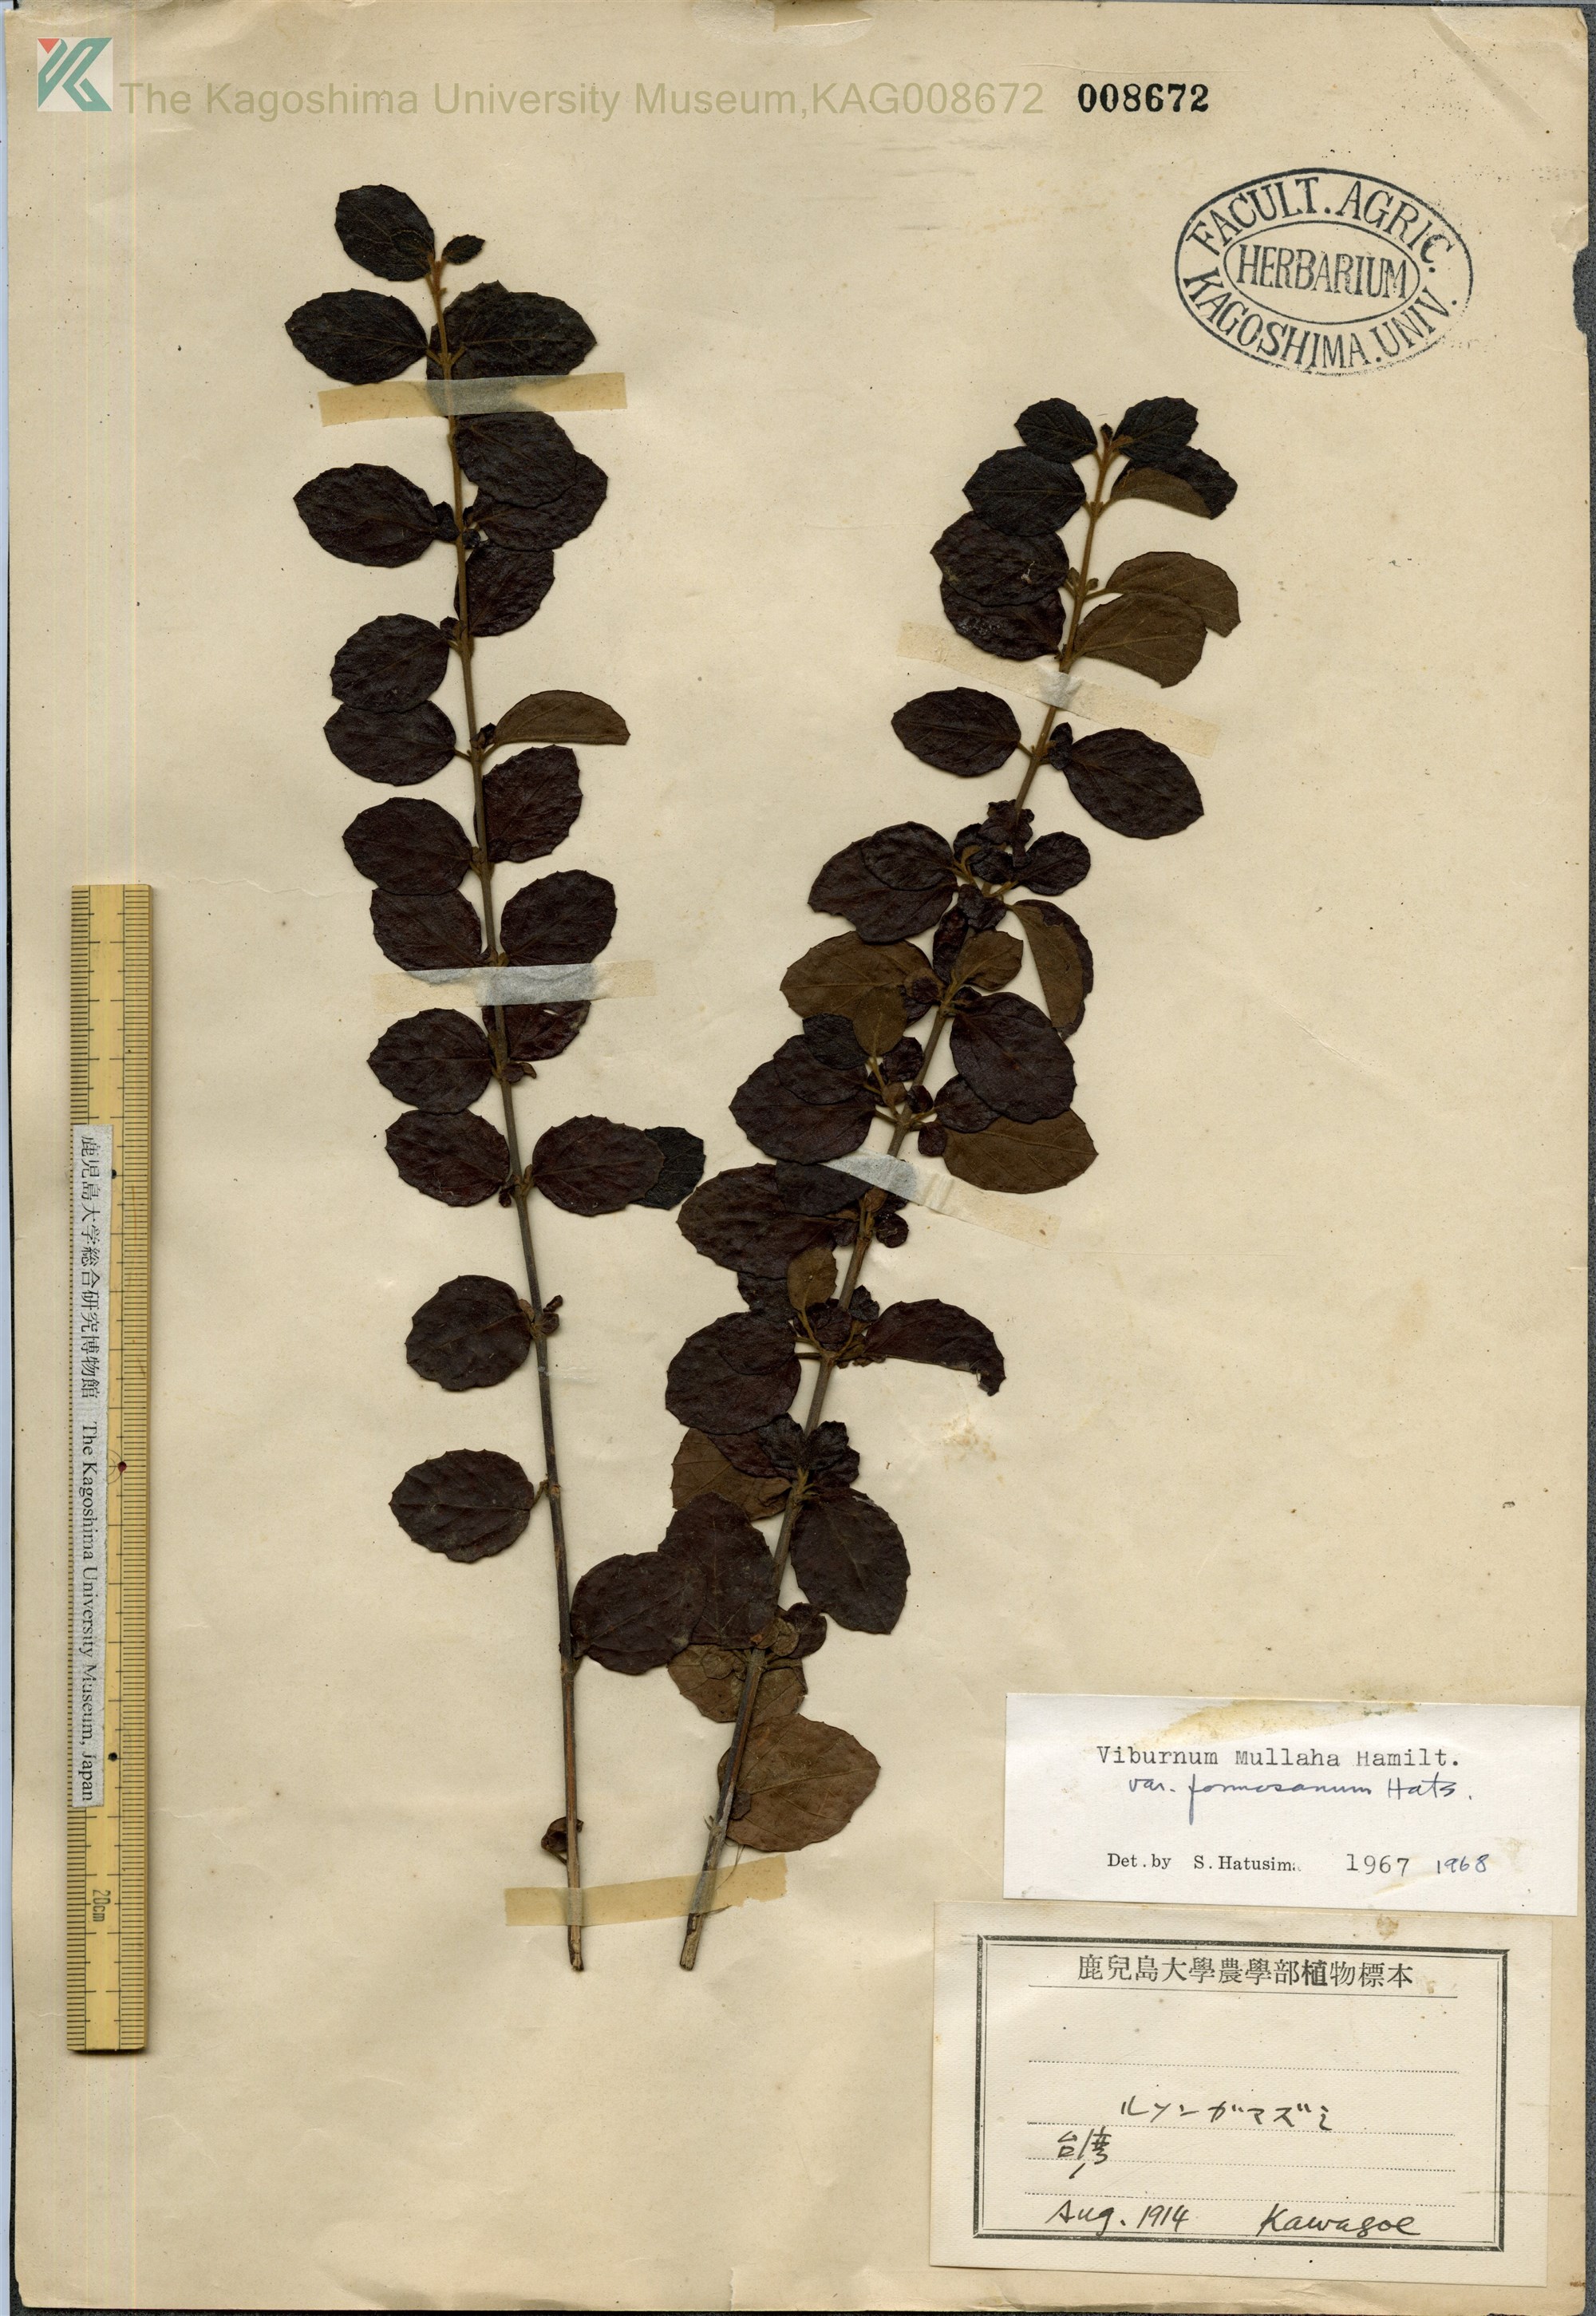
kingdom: Plantae
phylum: Tracheophyta
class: Magnoliopsida
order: Dipsacales
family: Viburnaceae
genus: Viburnum
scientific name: Viburnum mullaha
